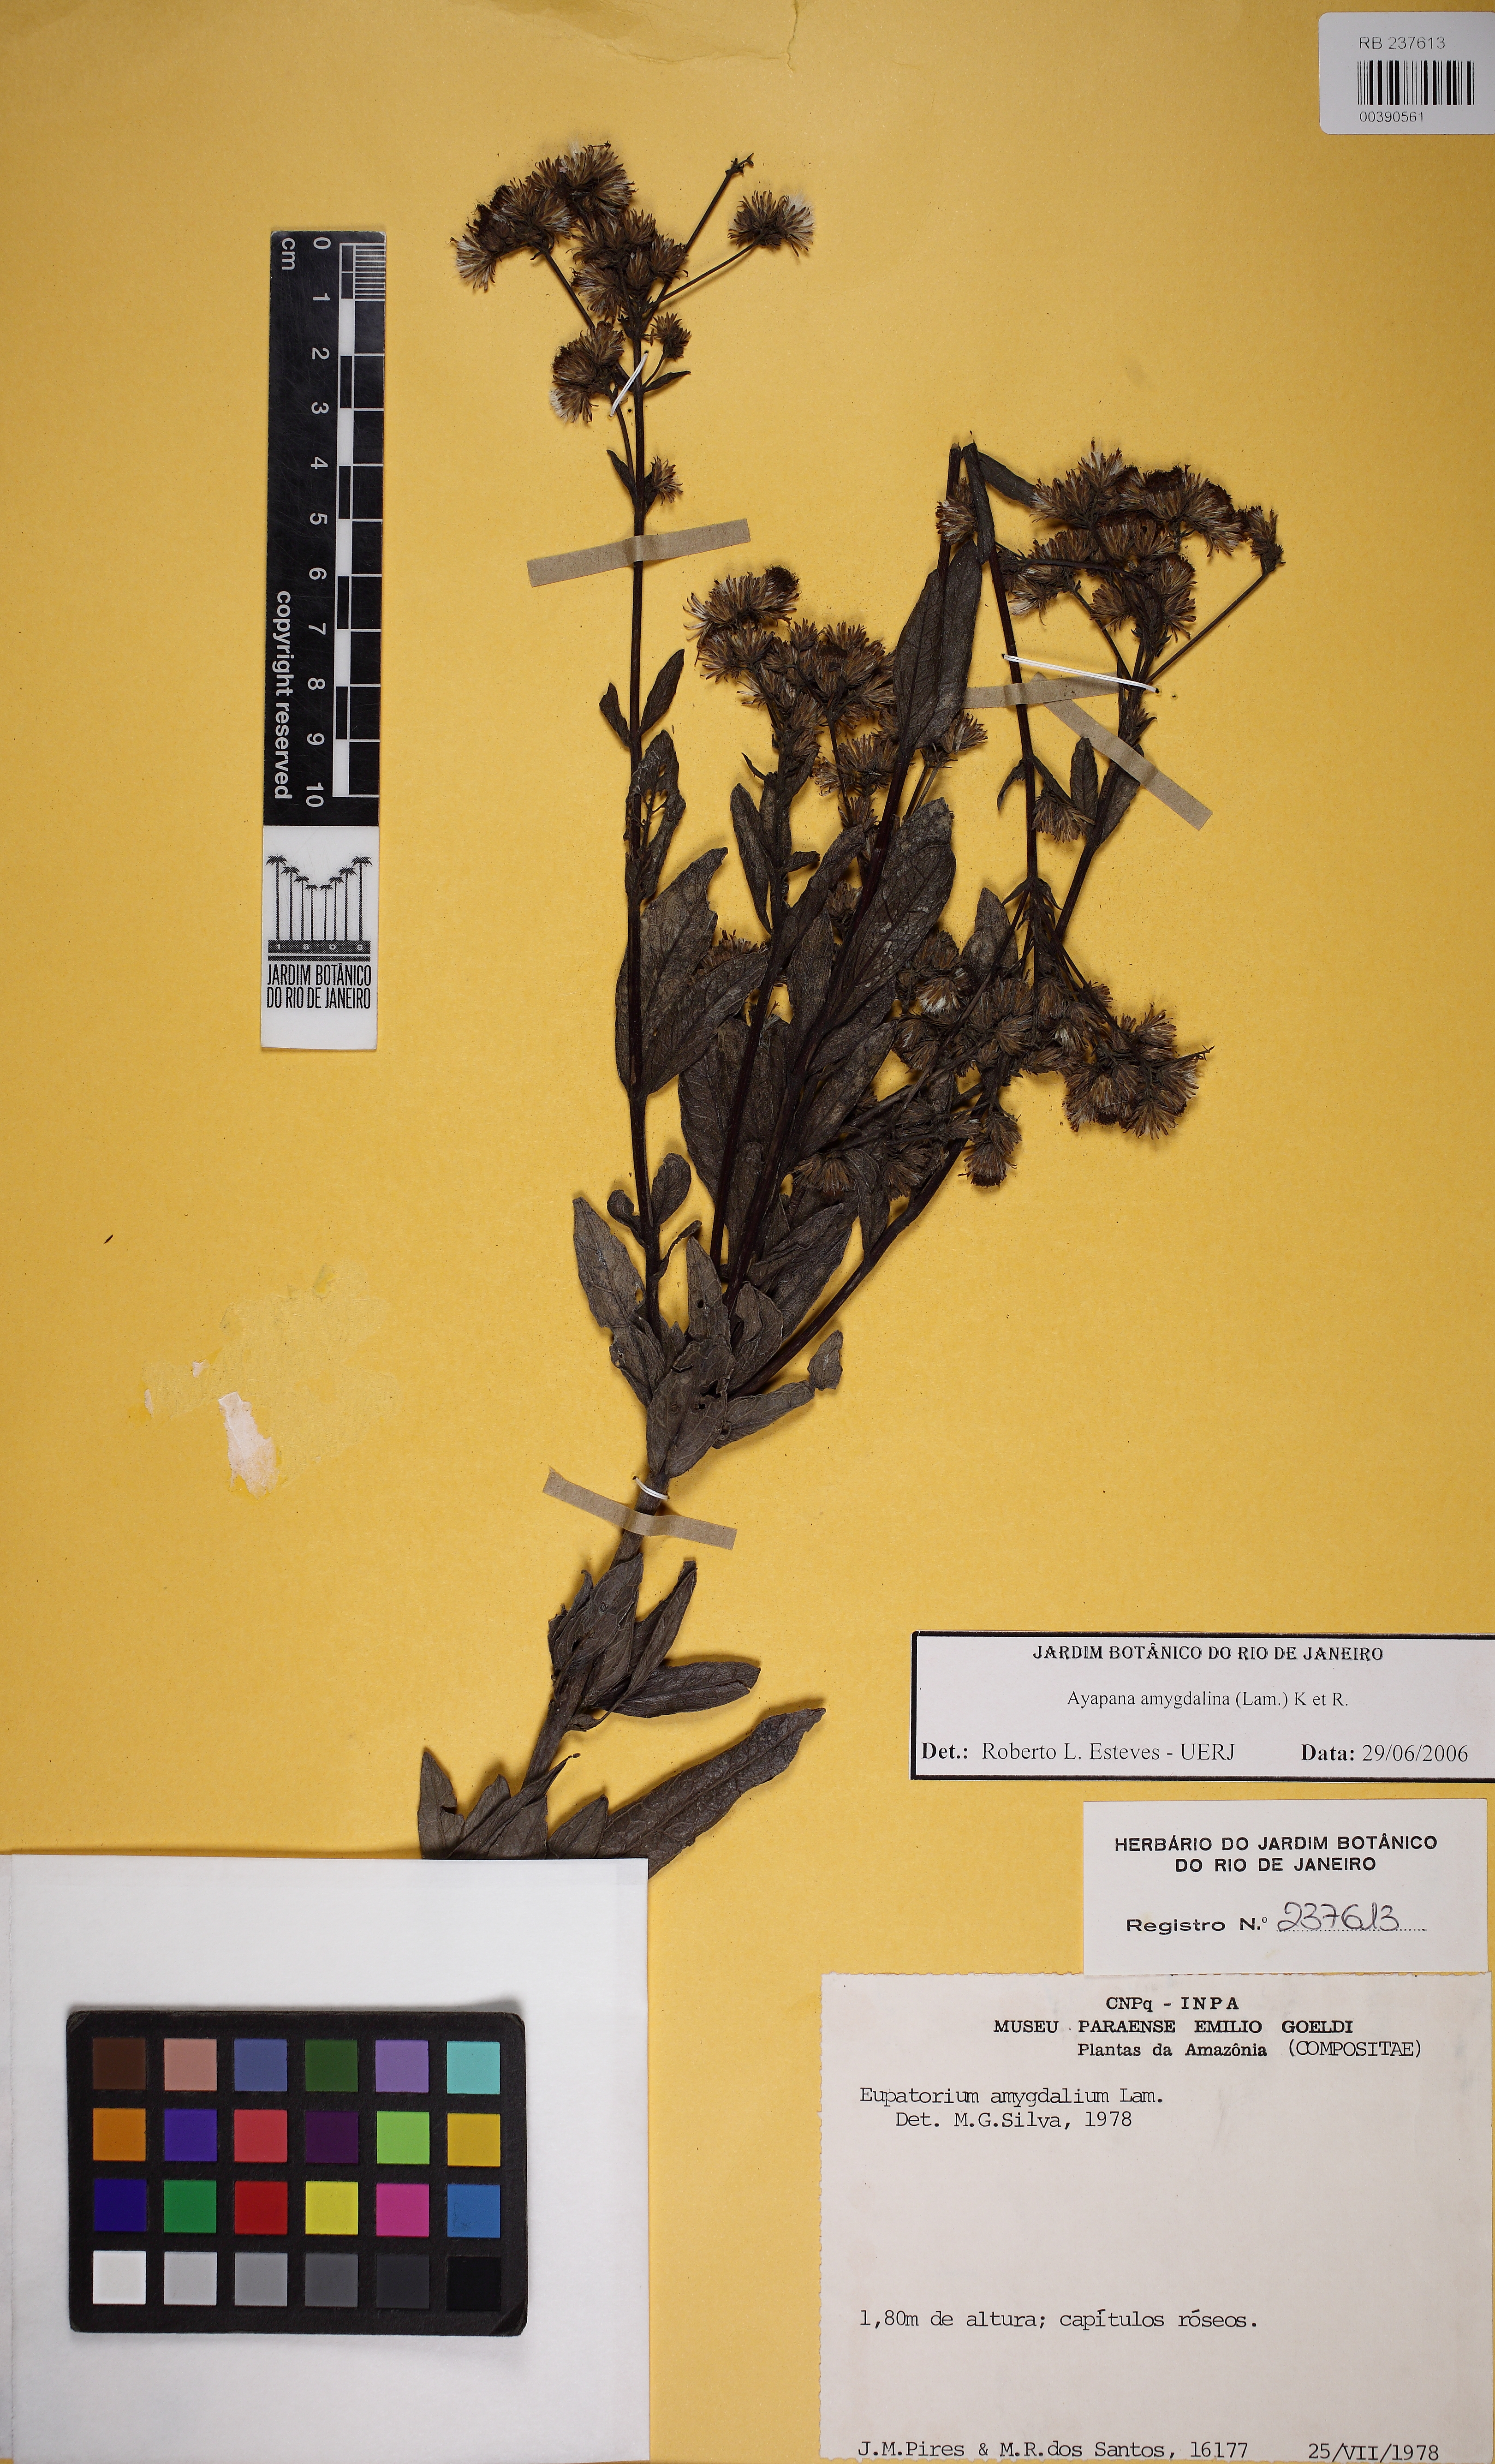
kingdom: Plantae
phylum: Tracheophyta
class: Magnoliopsida
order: Asterales
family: Asteraceae
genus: Ayapana
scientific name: Ayapana amygdalina
